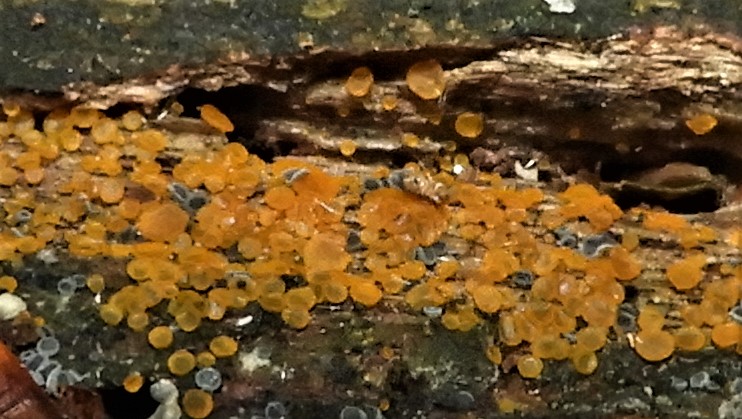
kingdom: Fungi
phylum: Ascomycota
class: Orbiliomycetes
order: Orbiliales
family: Orbiliaceae
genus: Orbilia
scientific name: Orbilia xanthostigma
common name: krumsporet voksskive
